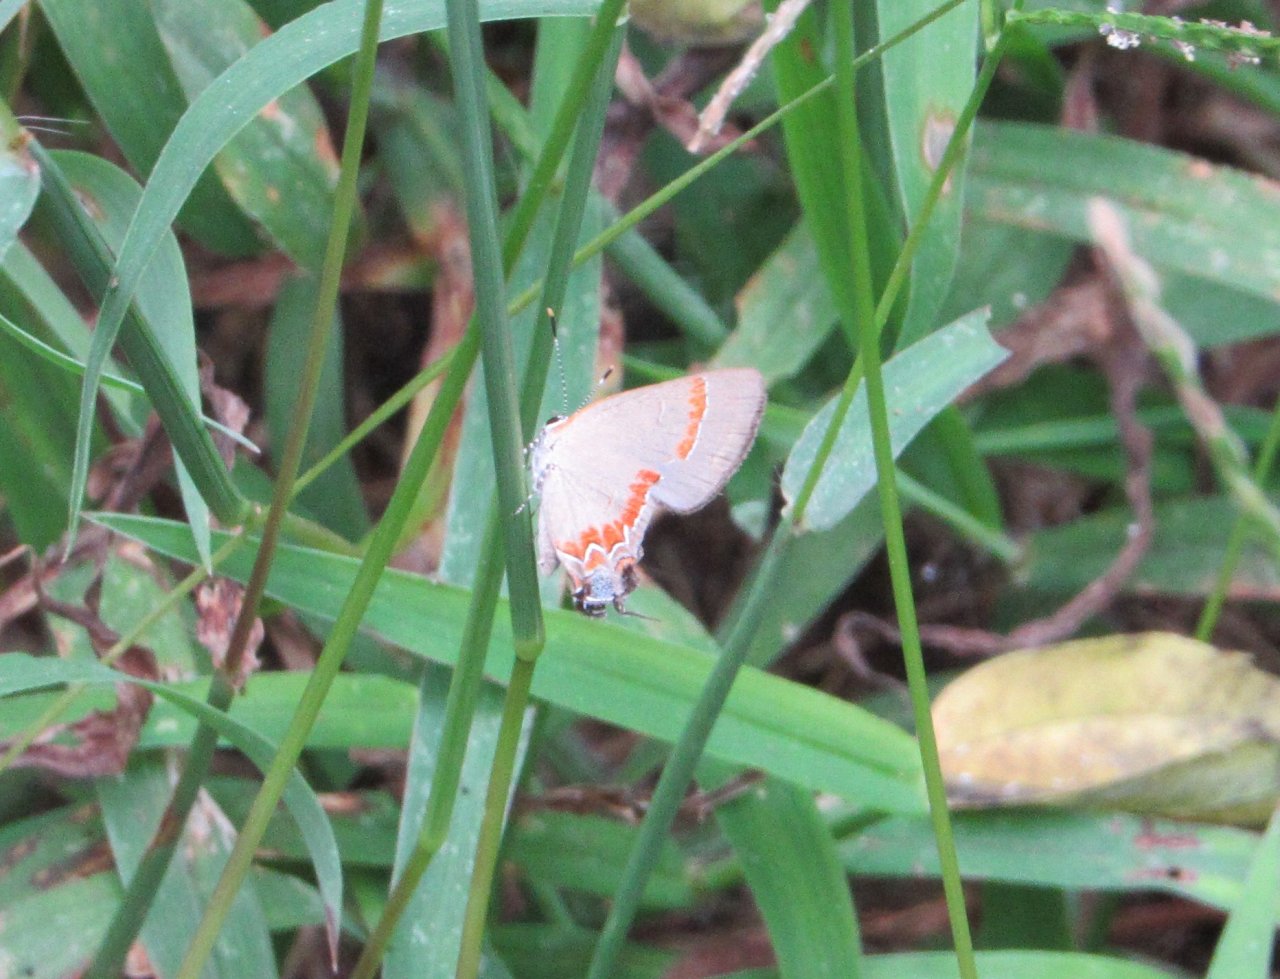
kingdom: Animalia
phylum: Arthropoda
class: Insecta
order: Lepidoptera
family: Lycaenidae
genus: Calycopis
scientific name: Calycopis cecrops
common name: Red-banded Hairstreak
